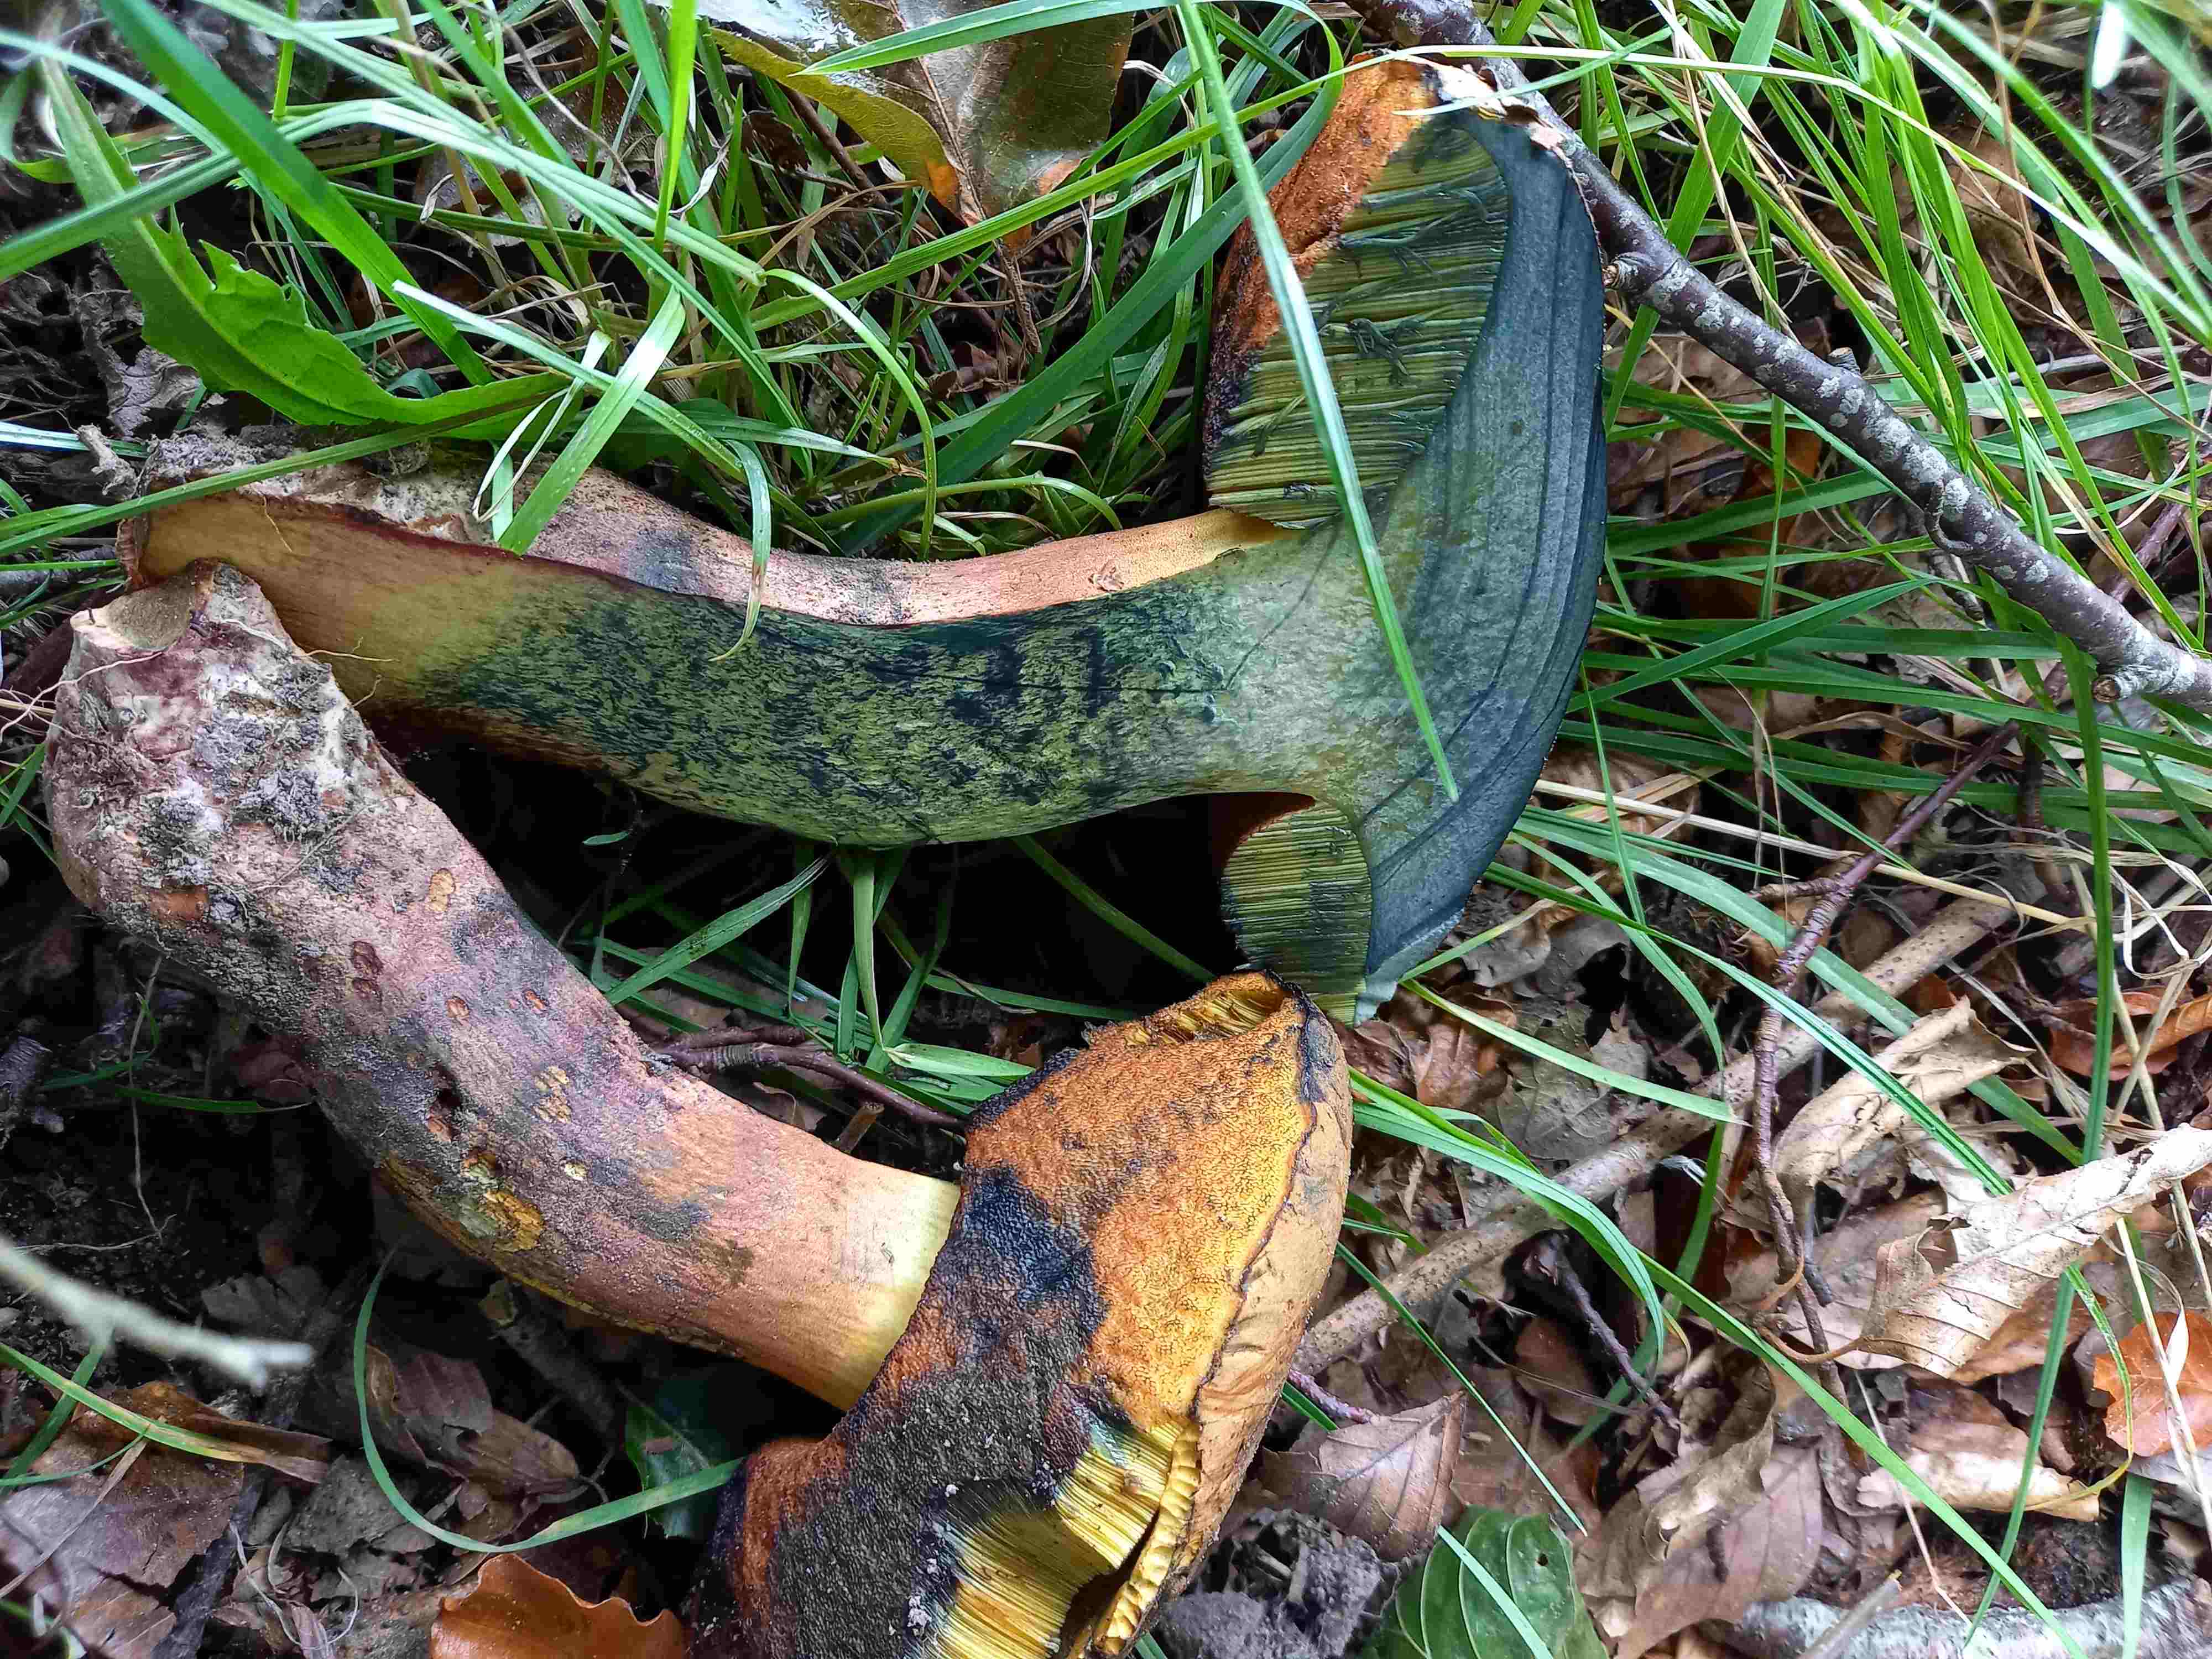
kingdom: Fungi
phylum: Basidiomycota
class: Agaricomycetes
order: Boletales
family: Boletaceae
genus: Neoboletus
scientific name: Neoboletus xanthopus
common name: finprikket indigorørhat
